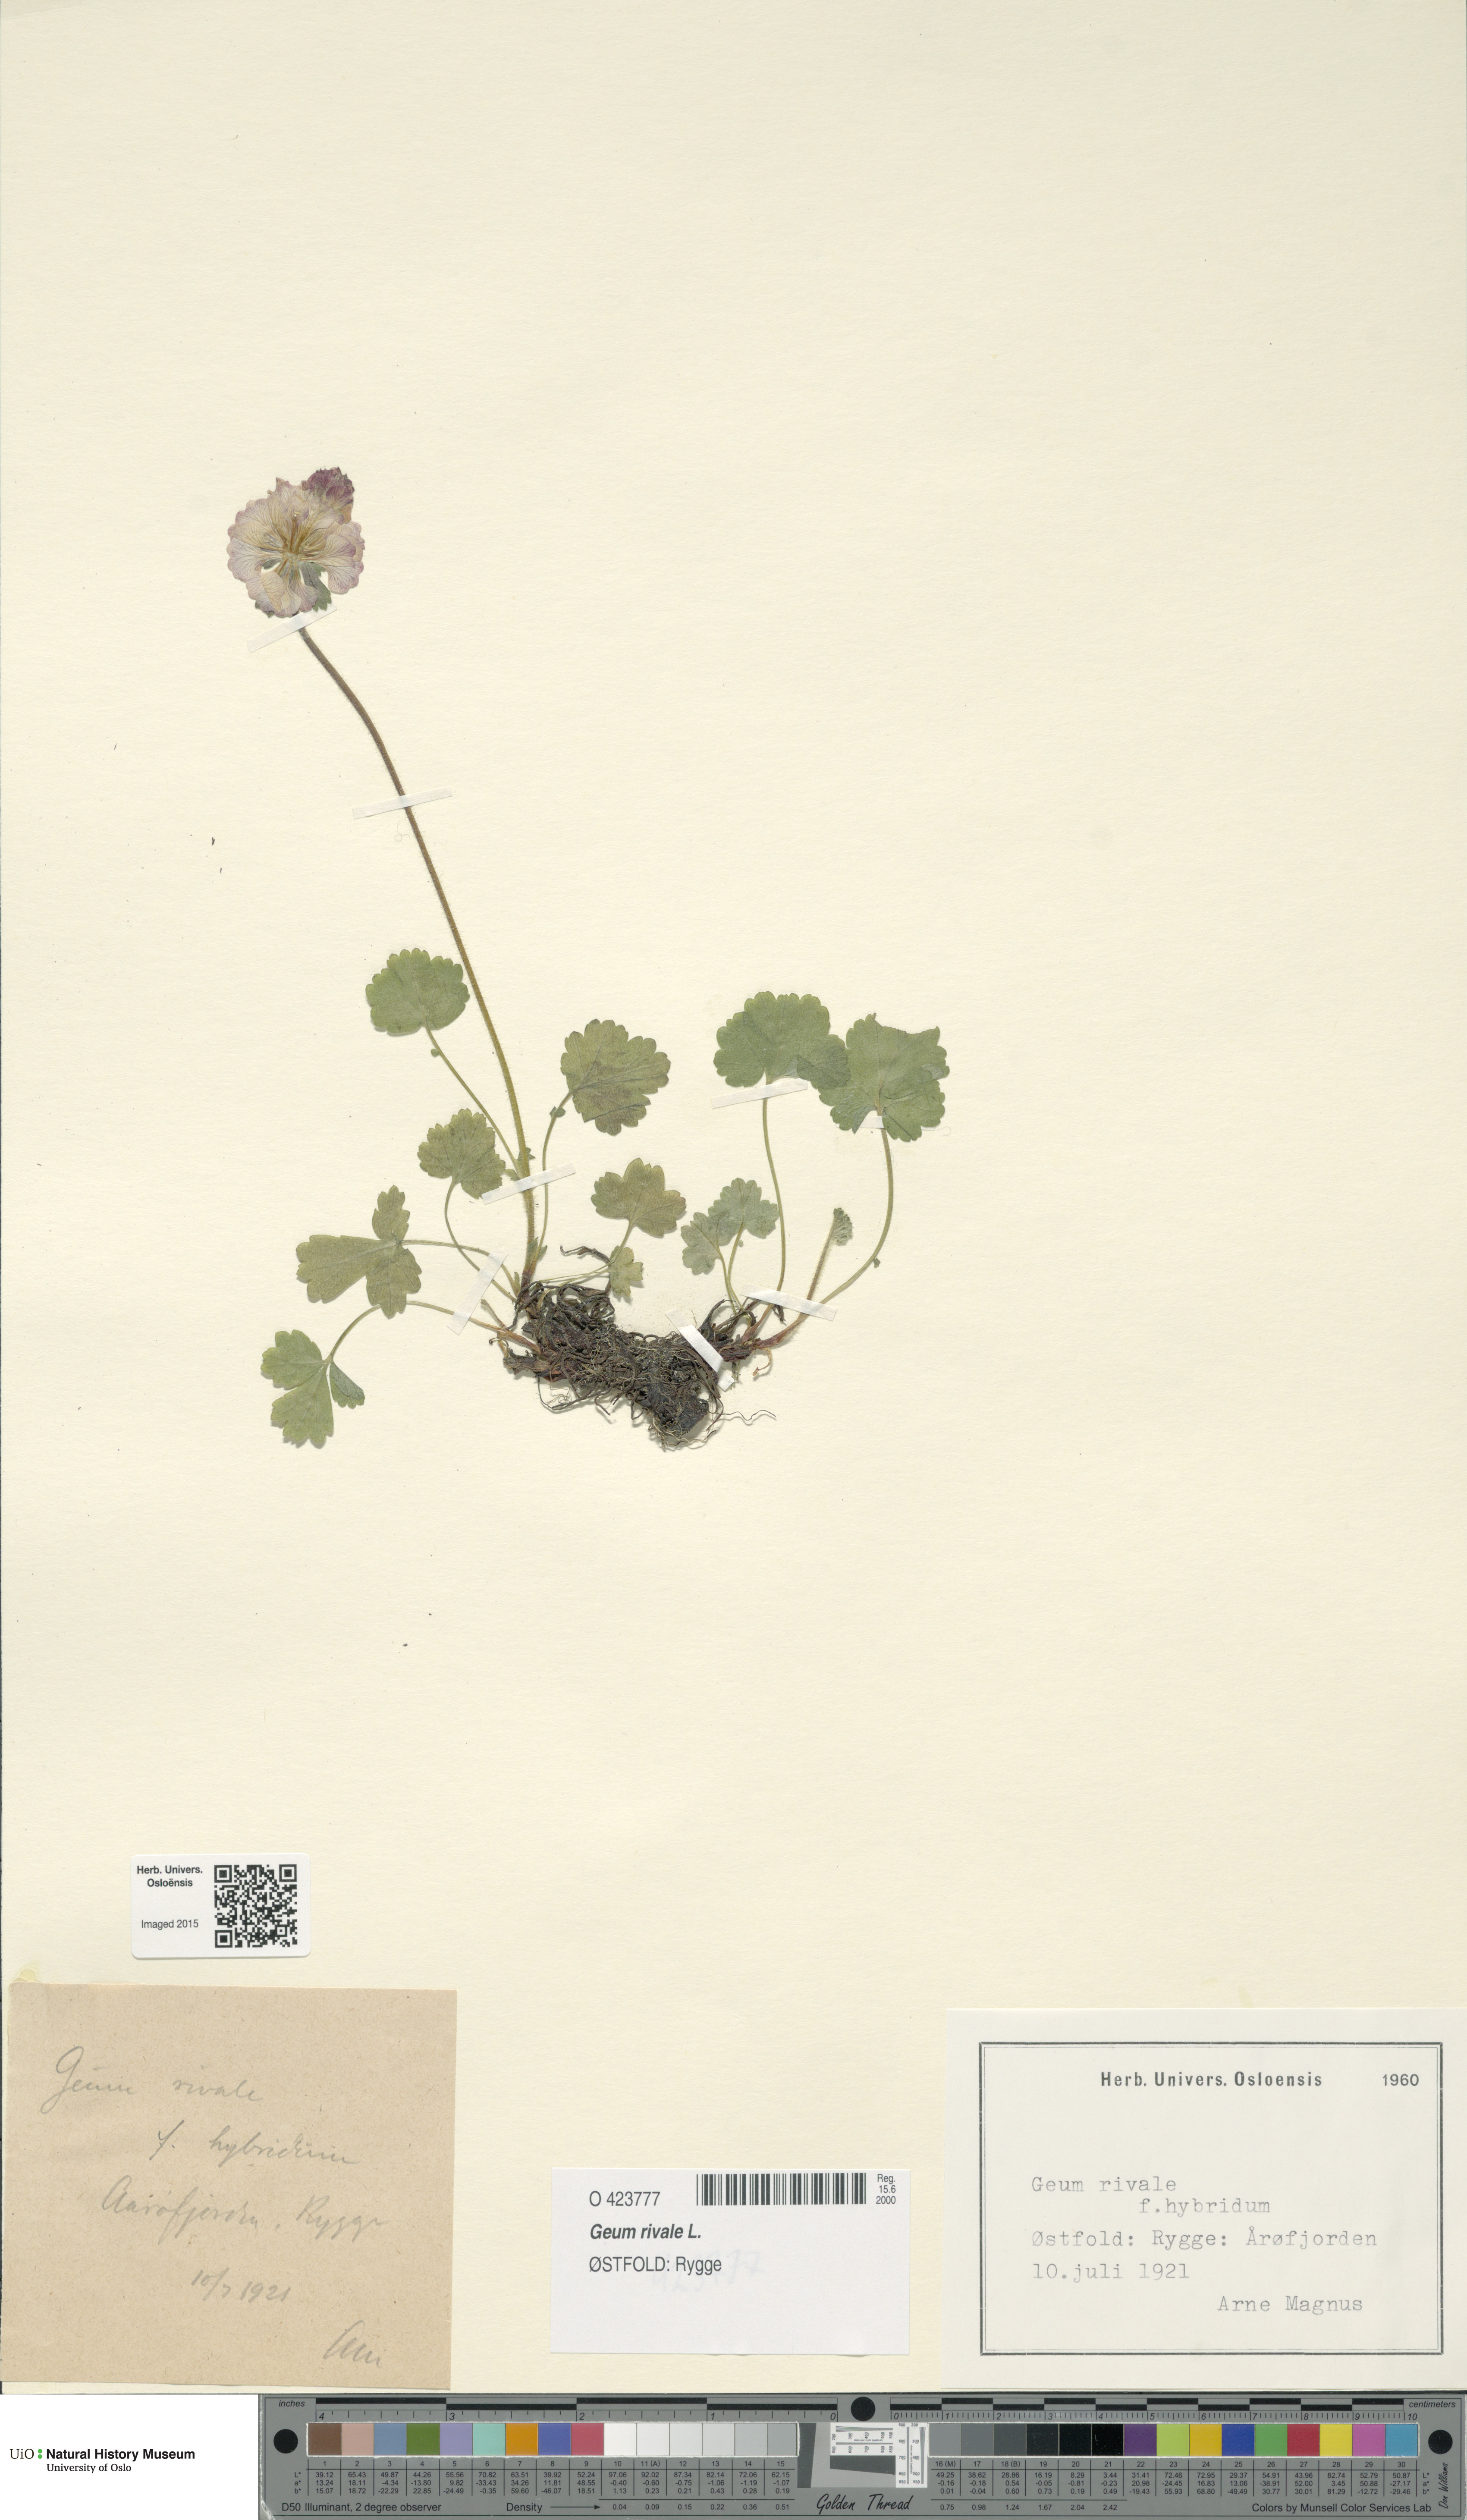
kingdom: Plantae
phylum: Tracheophyta
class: Magnoliopsida
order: Rosales
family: Rosaceae
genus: Geum
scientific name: Geum rivale
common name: Water avens
